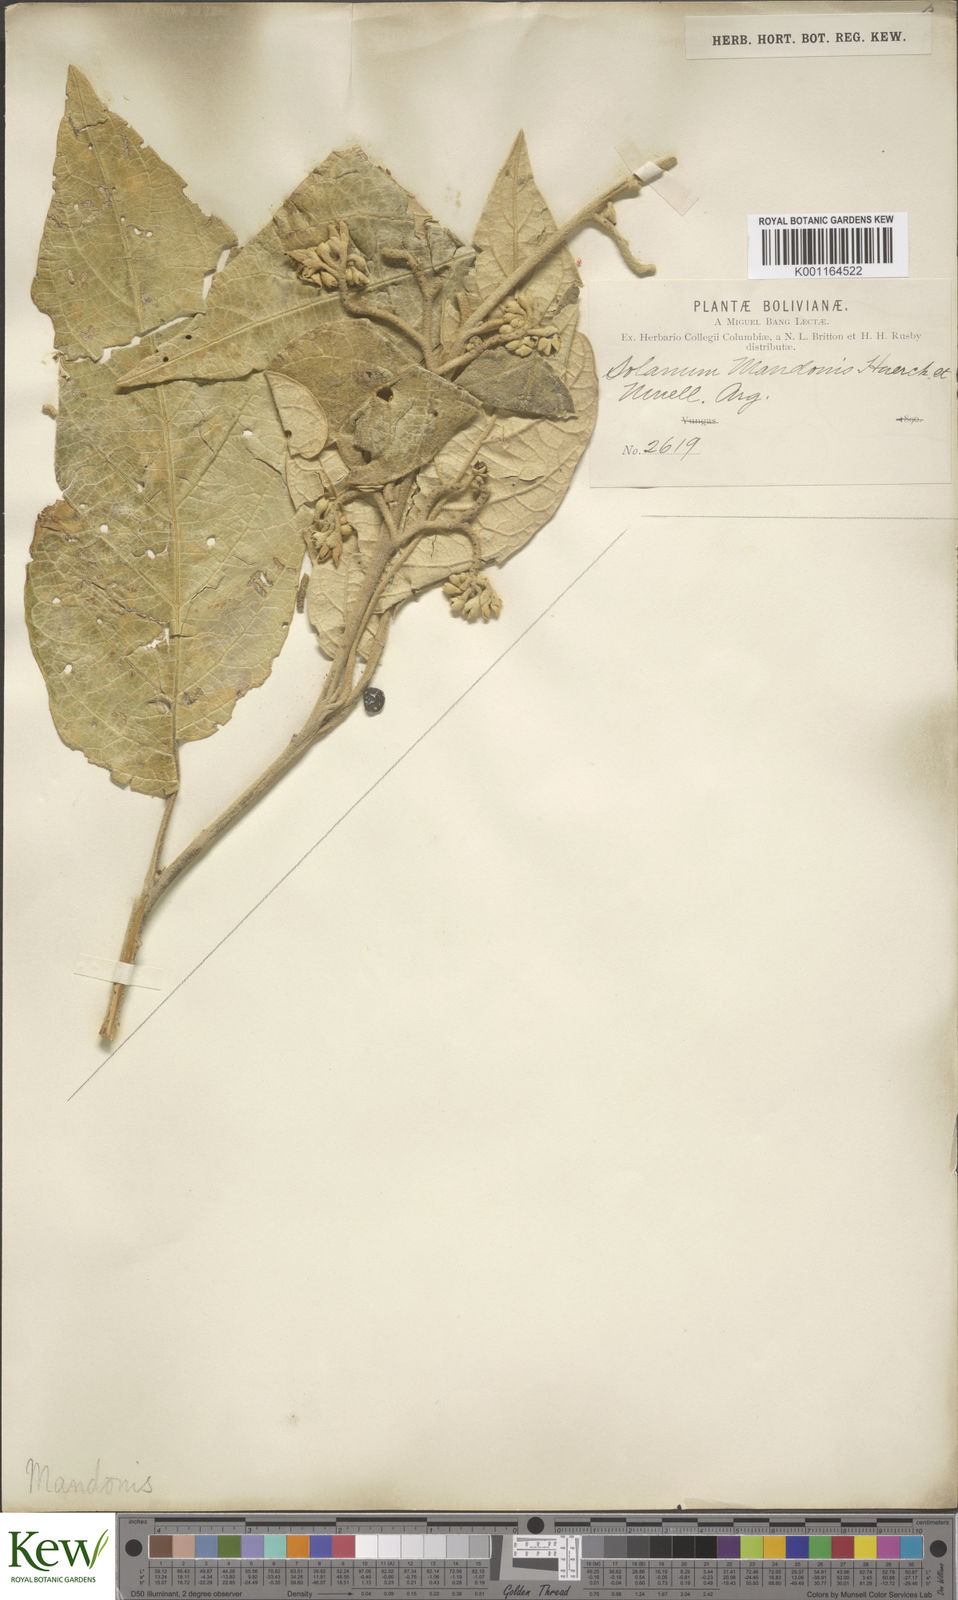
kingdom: Plantae
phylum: Tracheophyta
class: Magnoliopsida
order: Solanales
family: Solanaceae
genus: Solanum
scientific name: Solanum albidum
